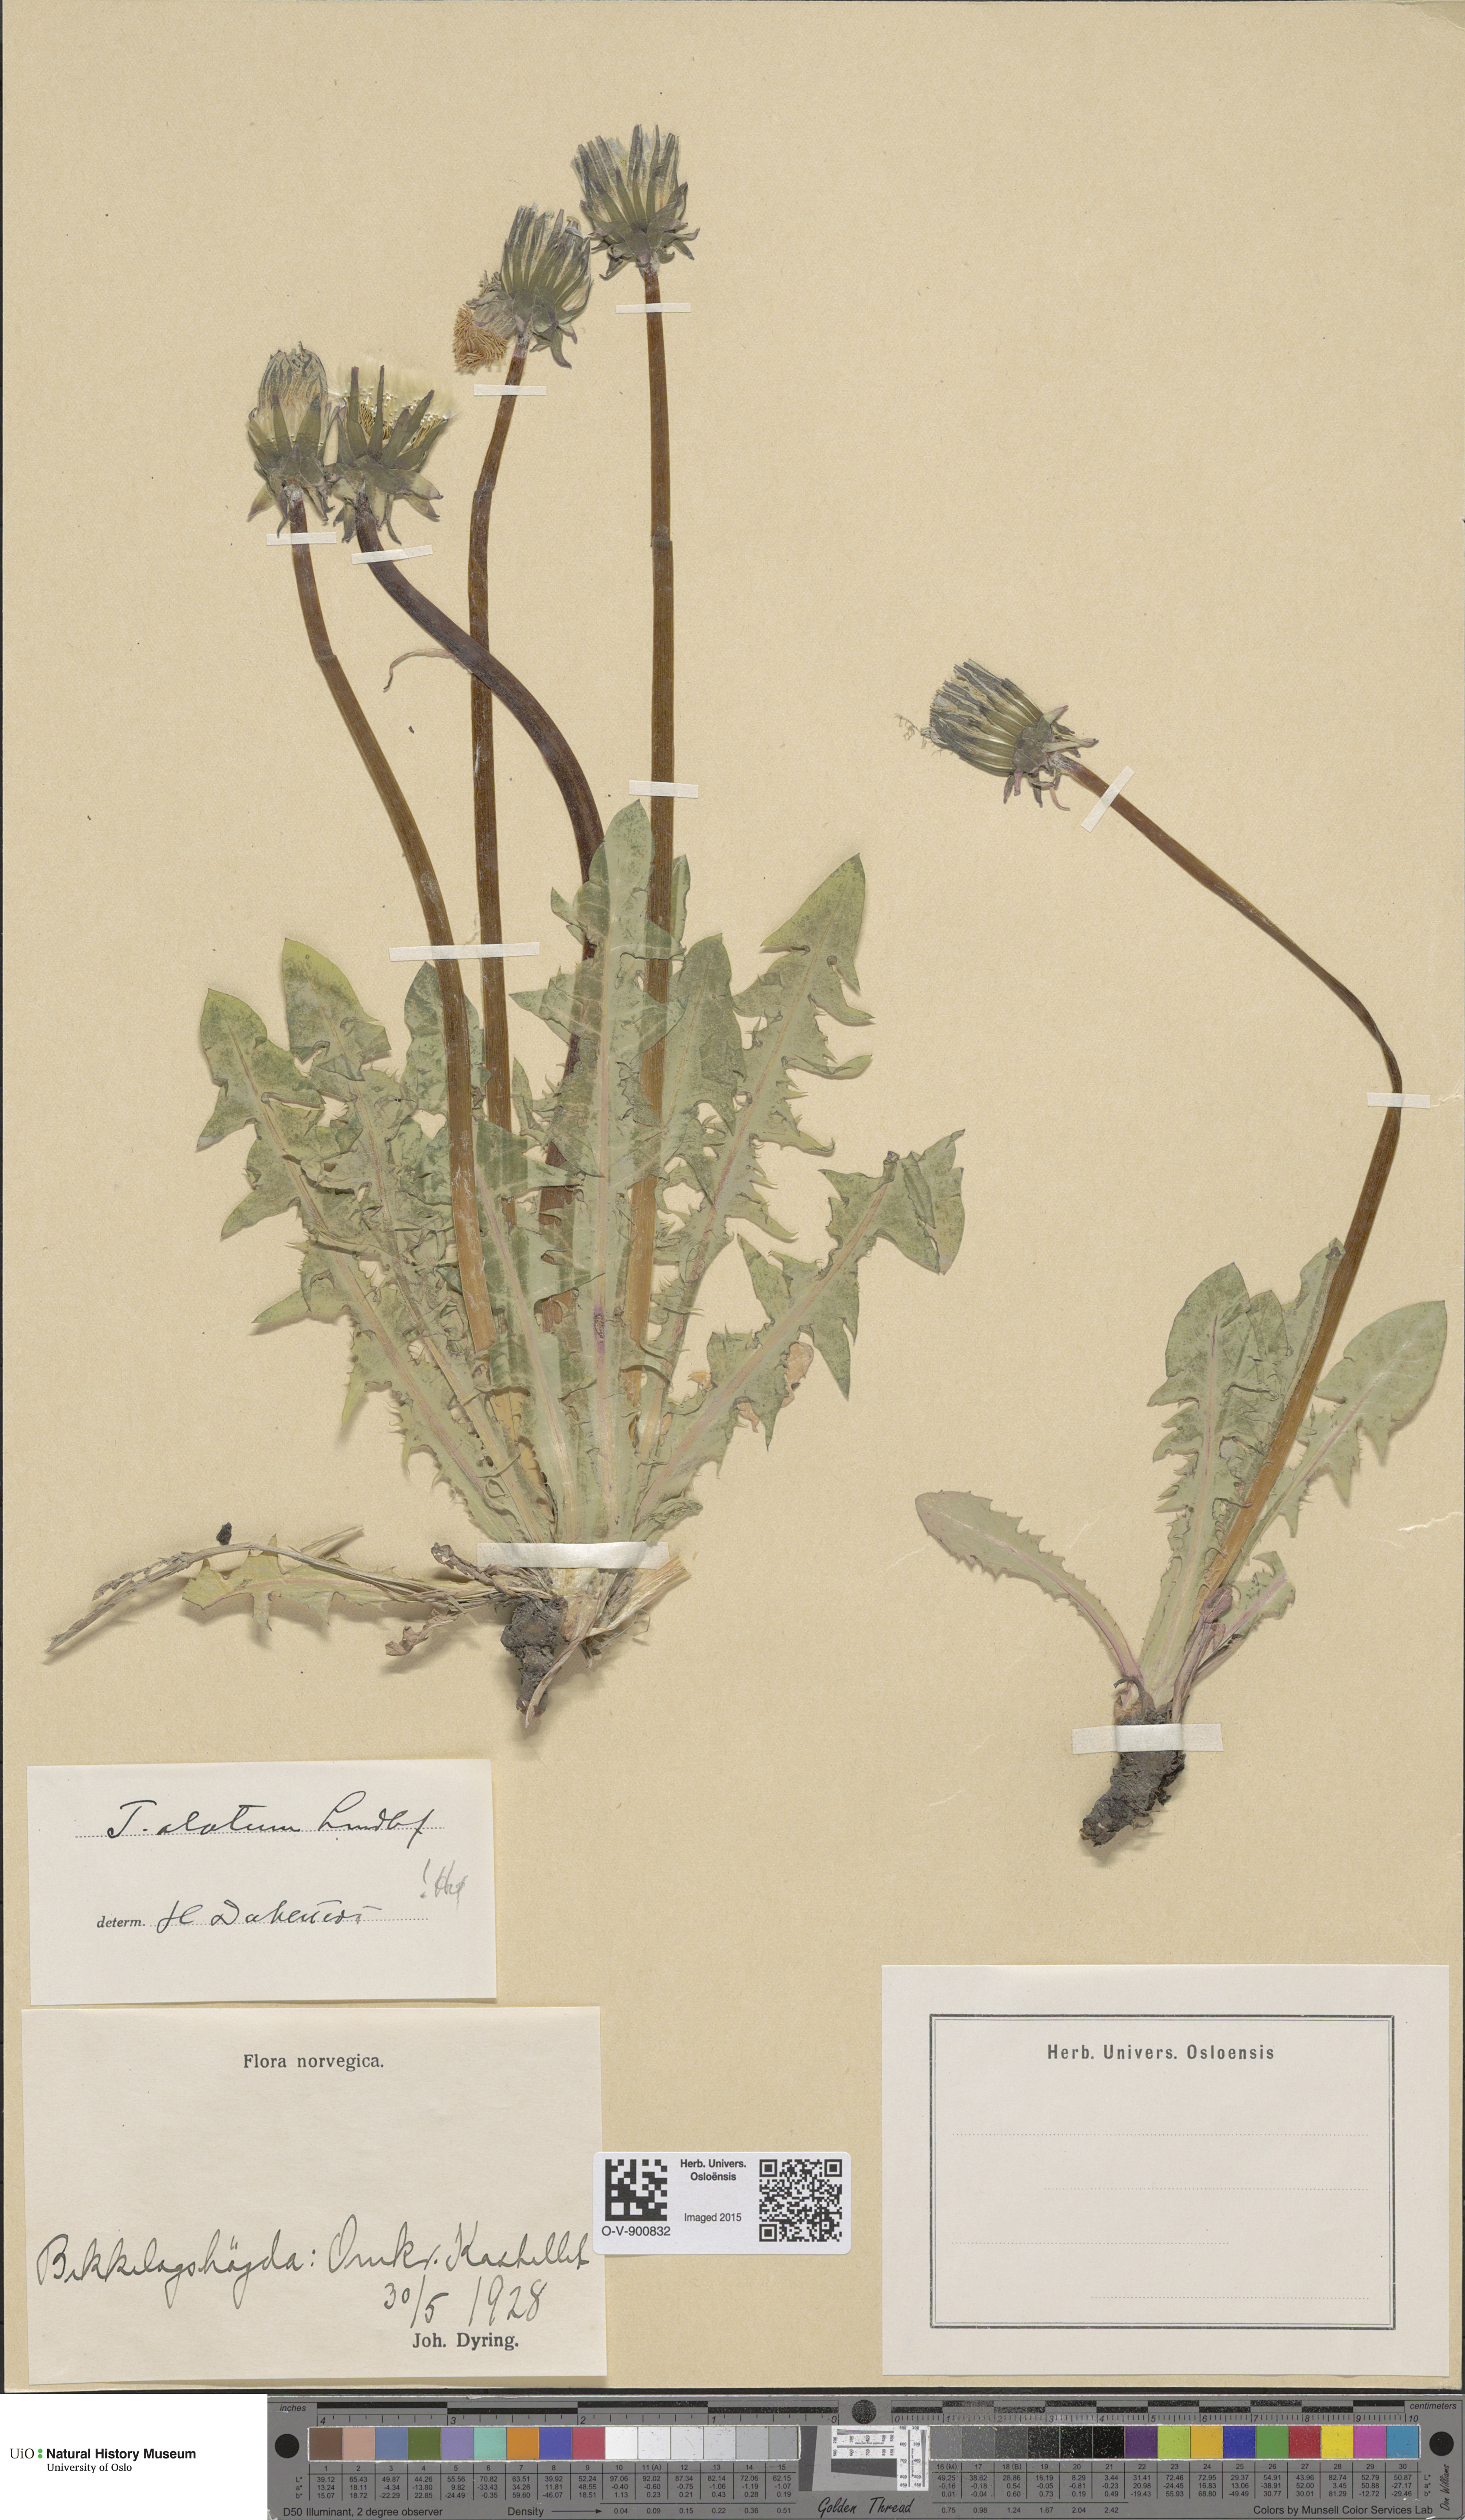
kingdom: Plantae
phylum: Tracheophyta
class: Magnoliopsida
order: Asterales
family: Asteraceae
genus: Taraxacum
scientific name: Taraxacum alatum
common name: Green dandelion
